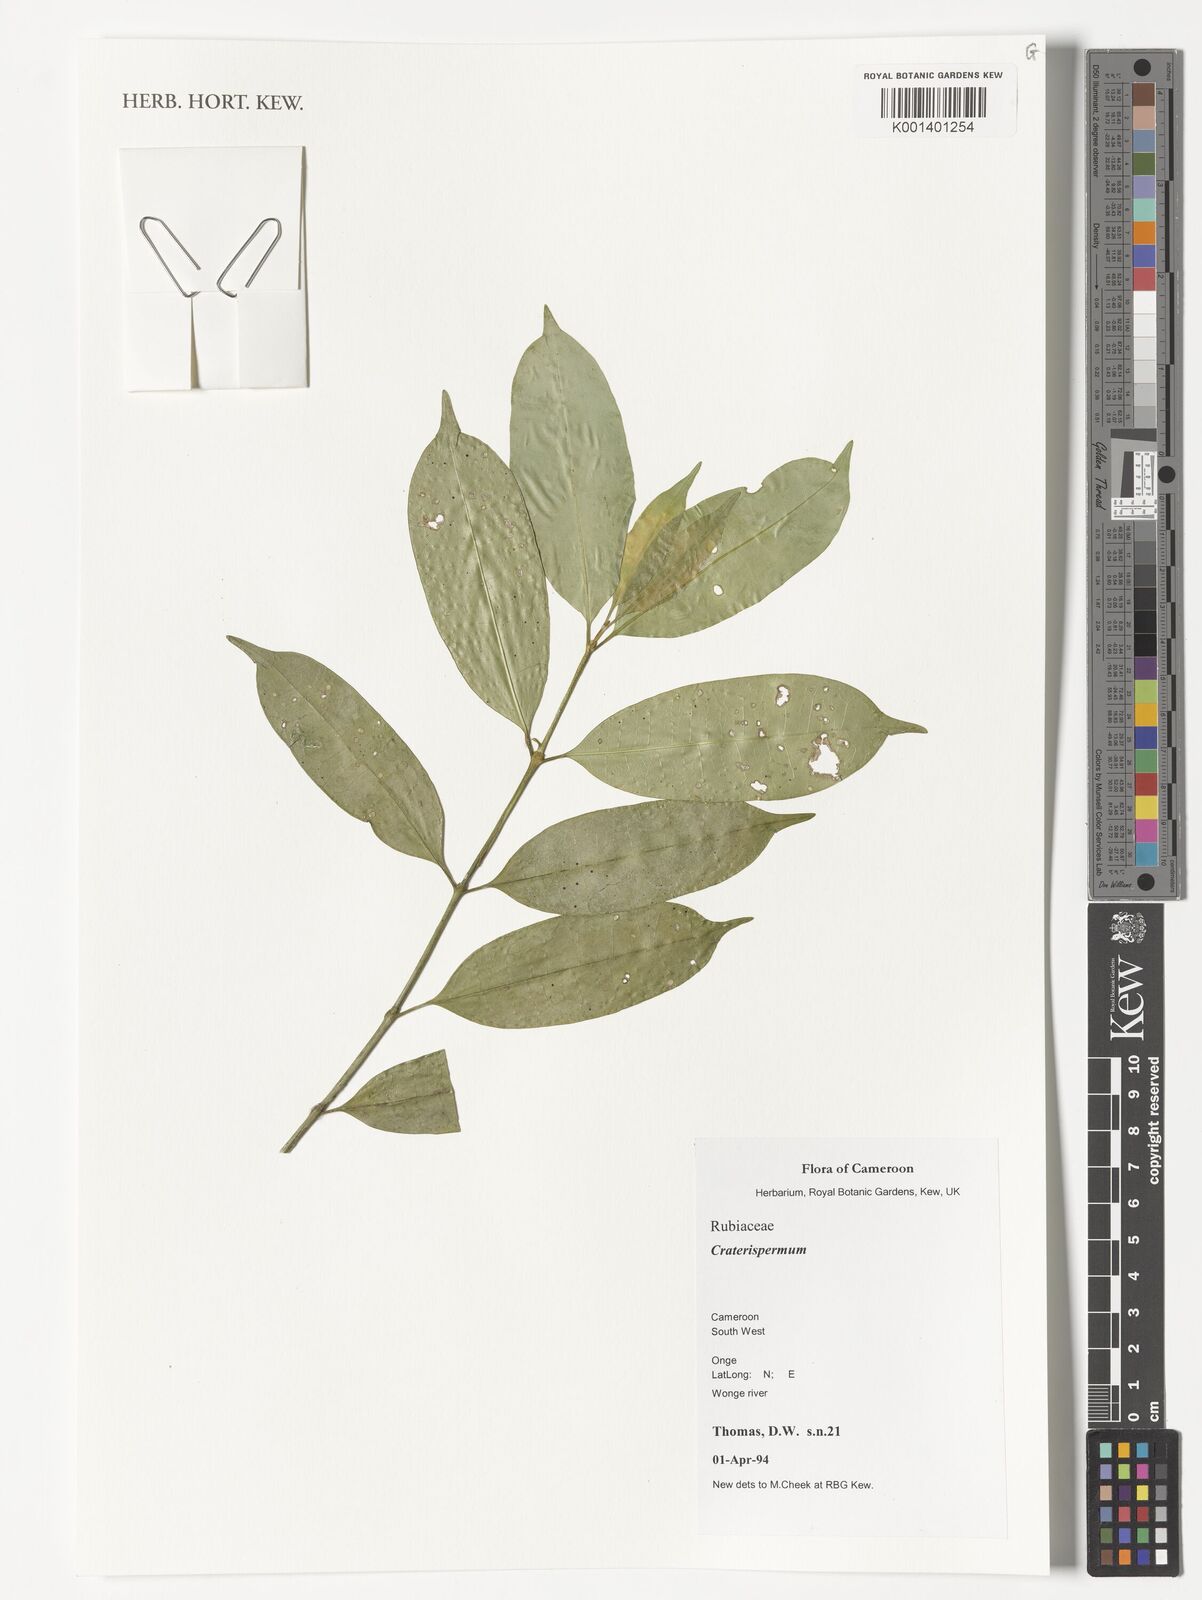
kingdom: Plantae
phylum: Tracheophyta
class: Magnoliopsida
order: Gentianales
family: Rubiaceae
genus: Craterispermum
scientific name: Craterispermum
